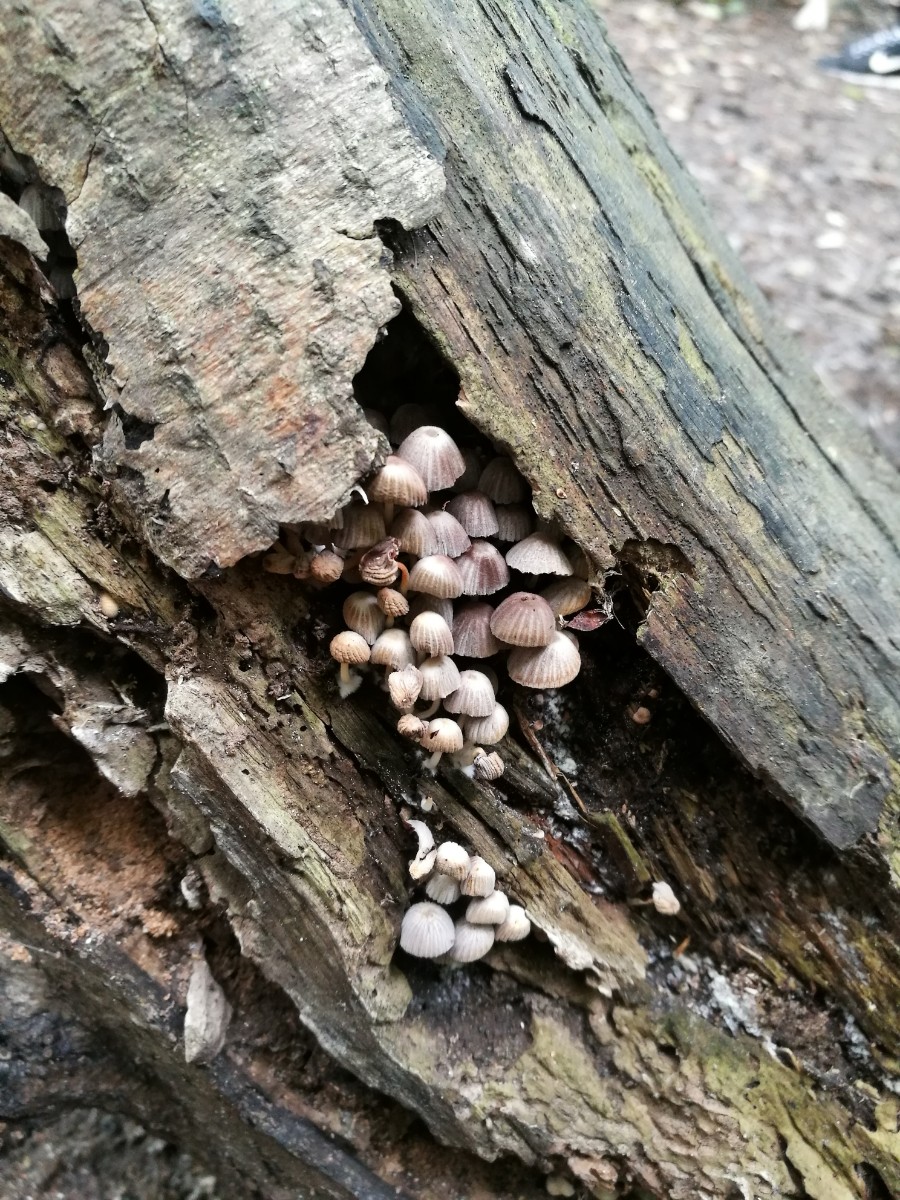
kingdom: Fungi
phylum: Basidiomycota
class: Agaricomycetes
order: Agaricales
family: Psathyrellaceae
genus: Coprinellus
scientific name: Coprinellus disseminatus
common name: bredsået blækhat
